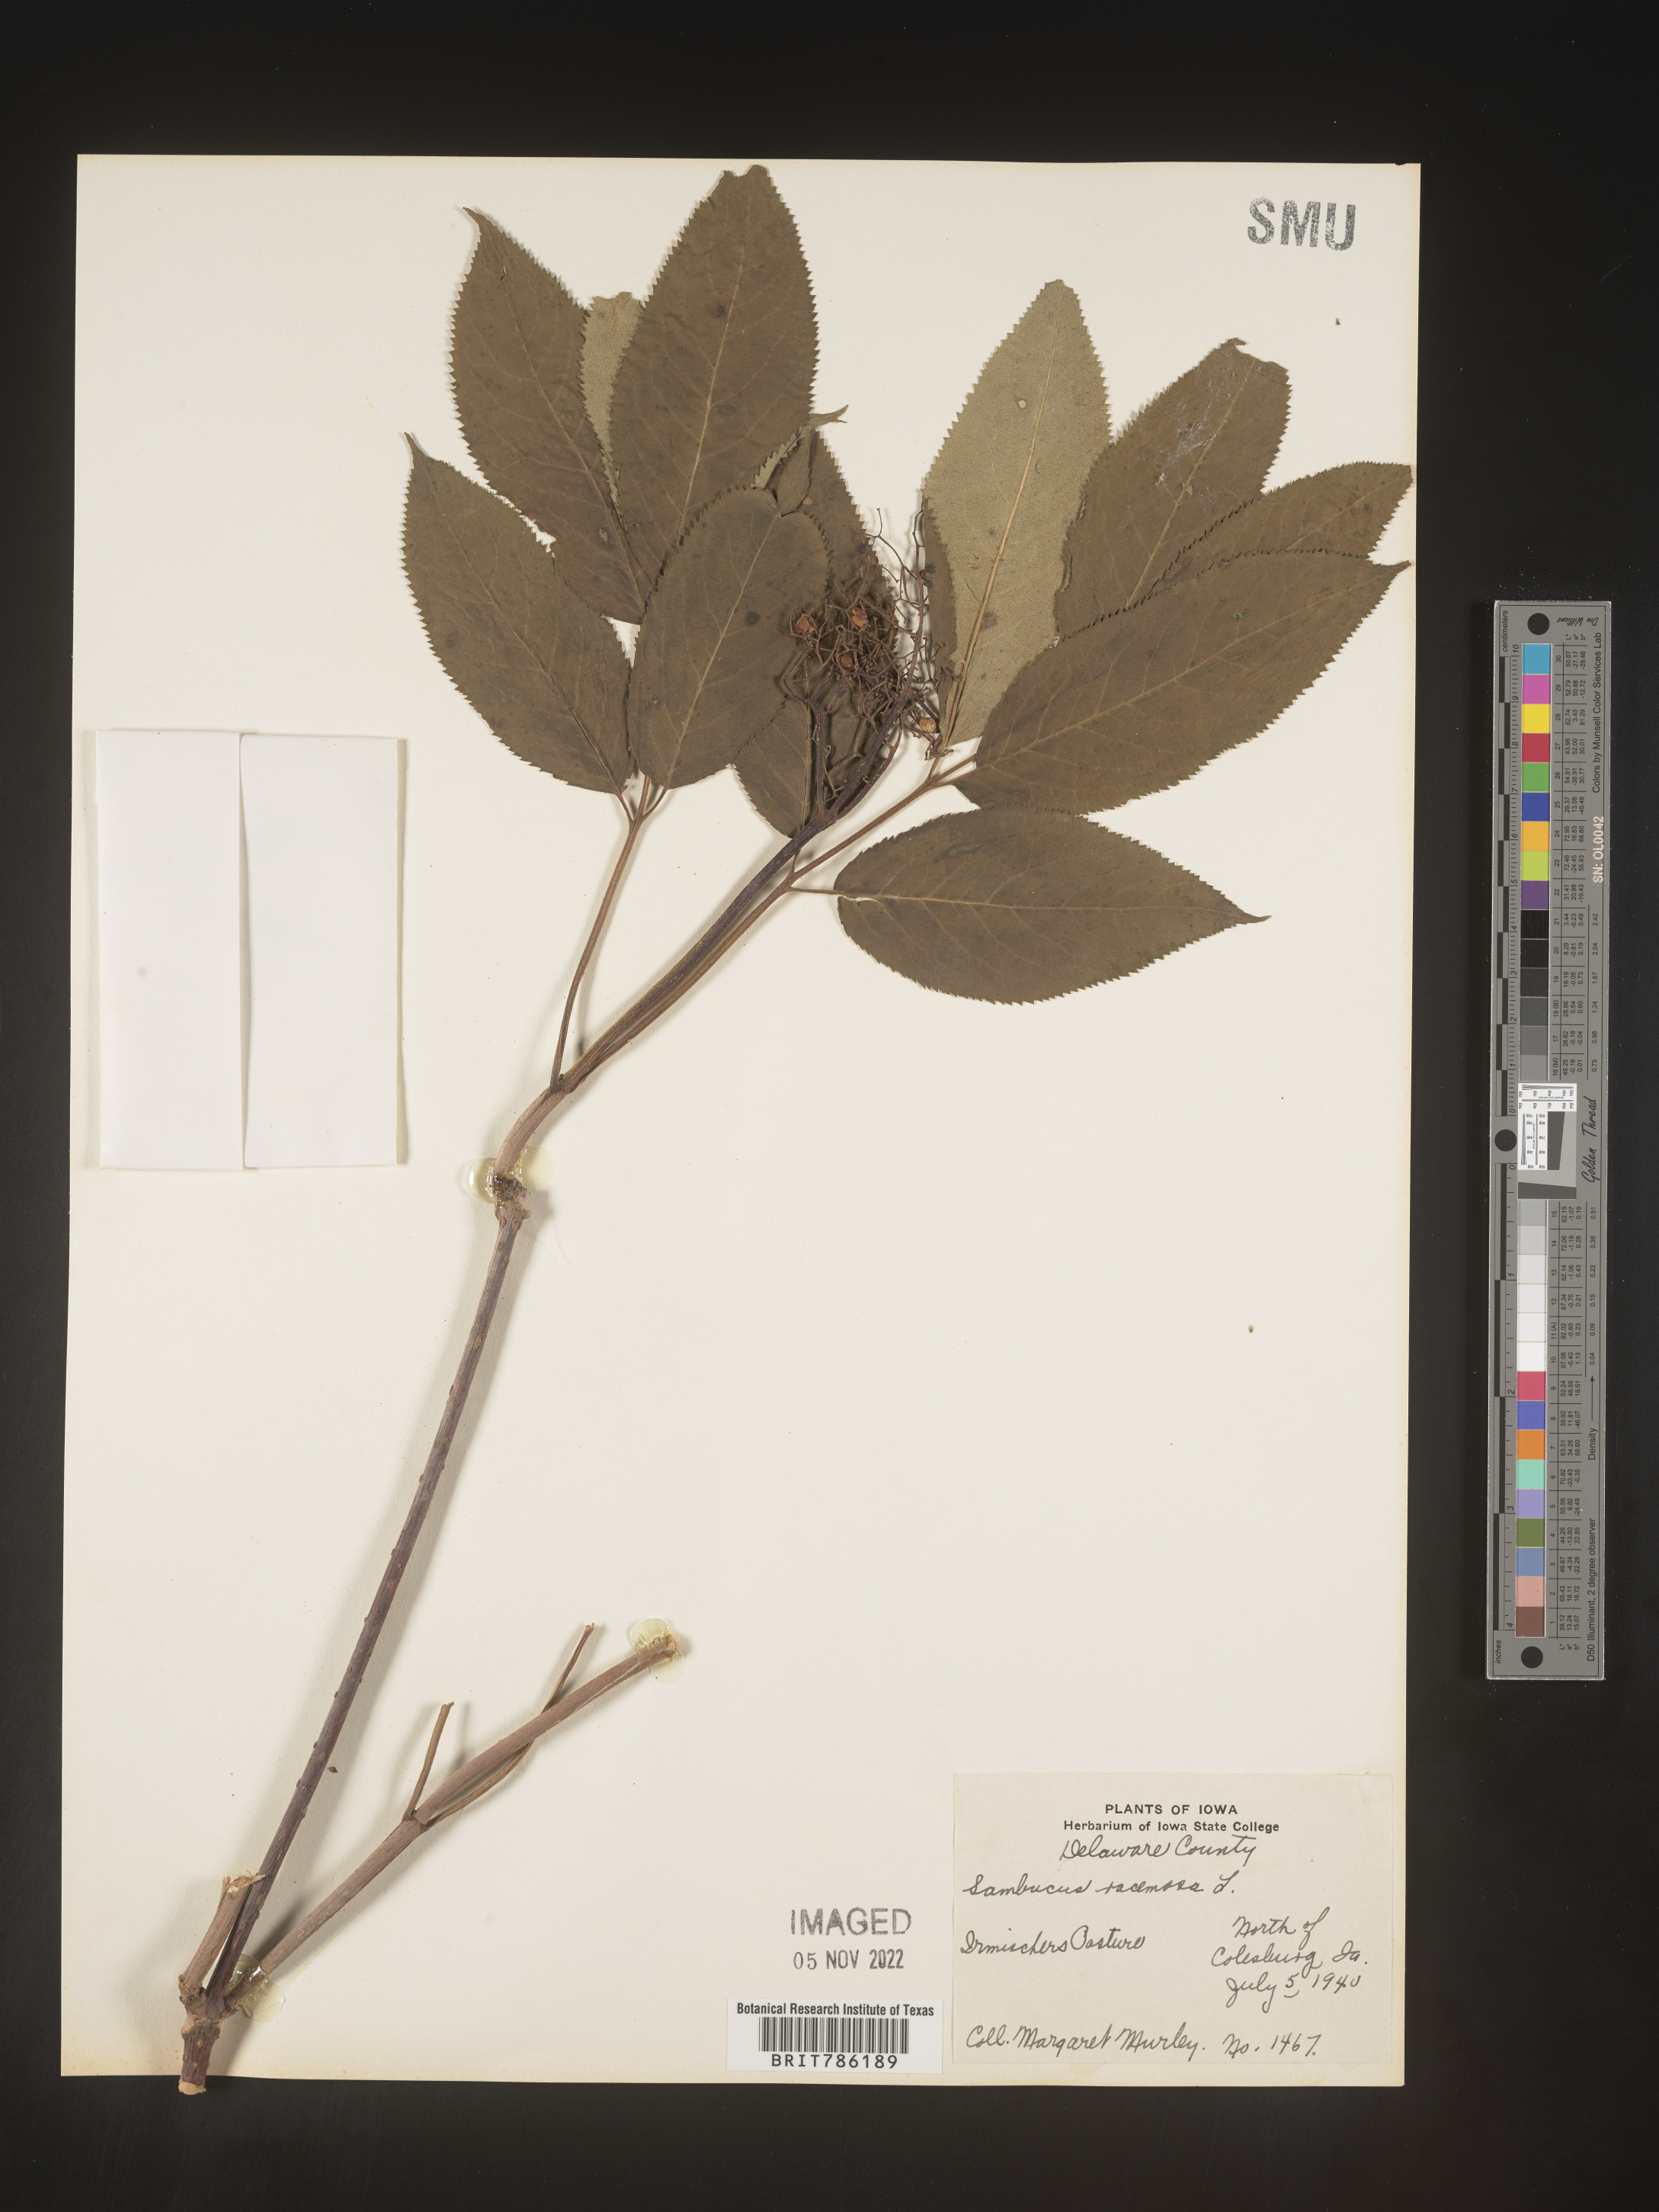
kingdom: Plantae
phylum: Tracheophyta
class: Magnoliopsida
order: Dipsacales
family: Viburnaceae
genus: Sambucus
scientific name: Sambucus
